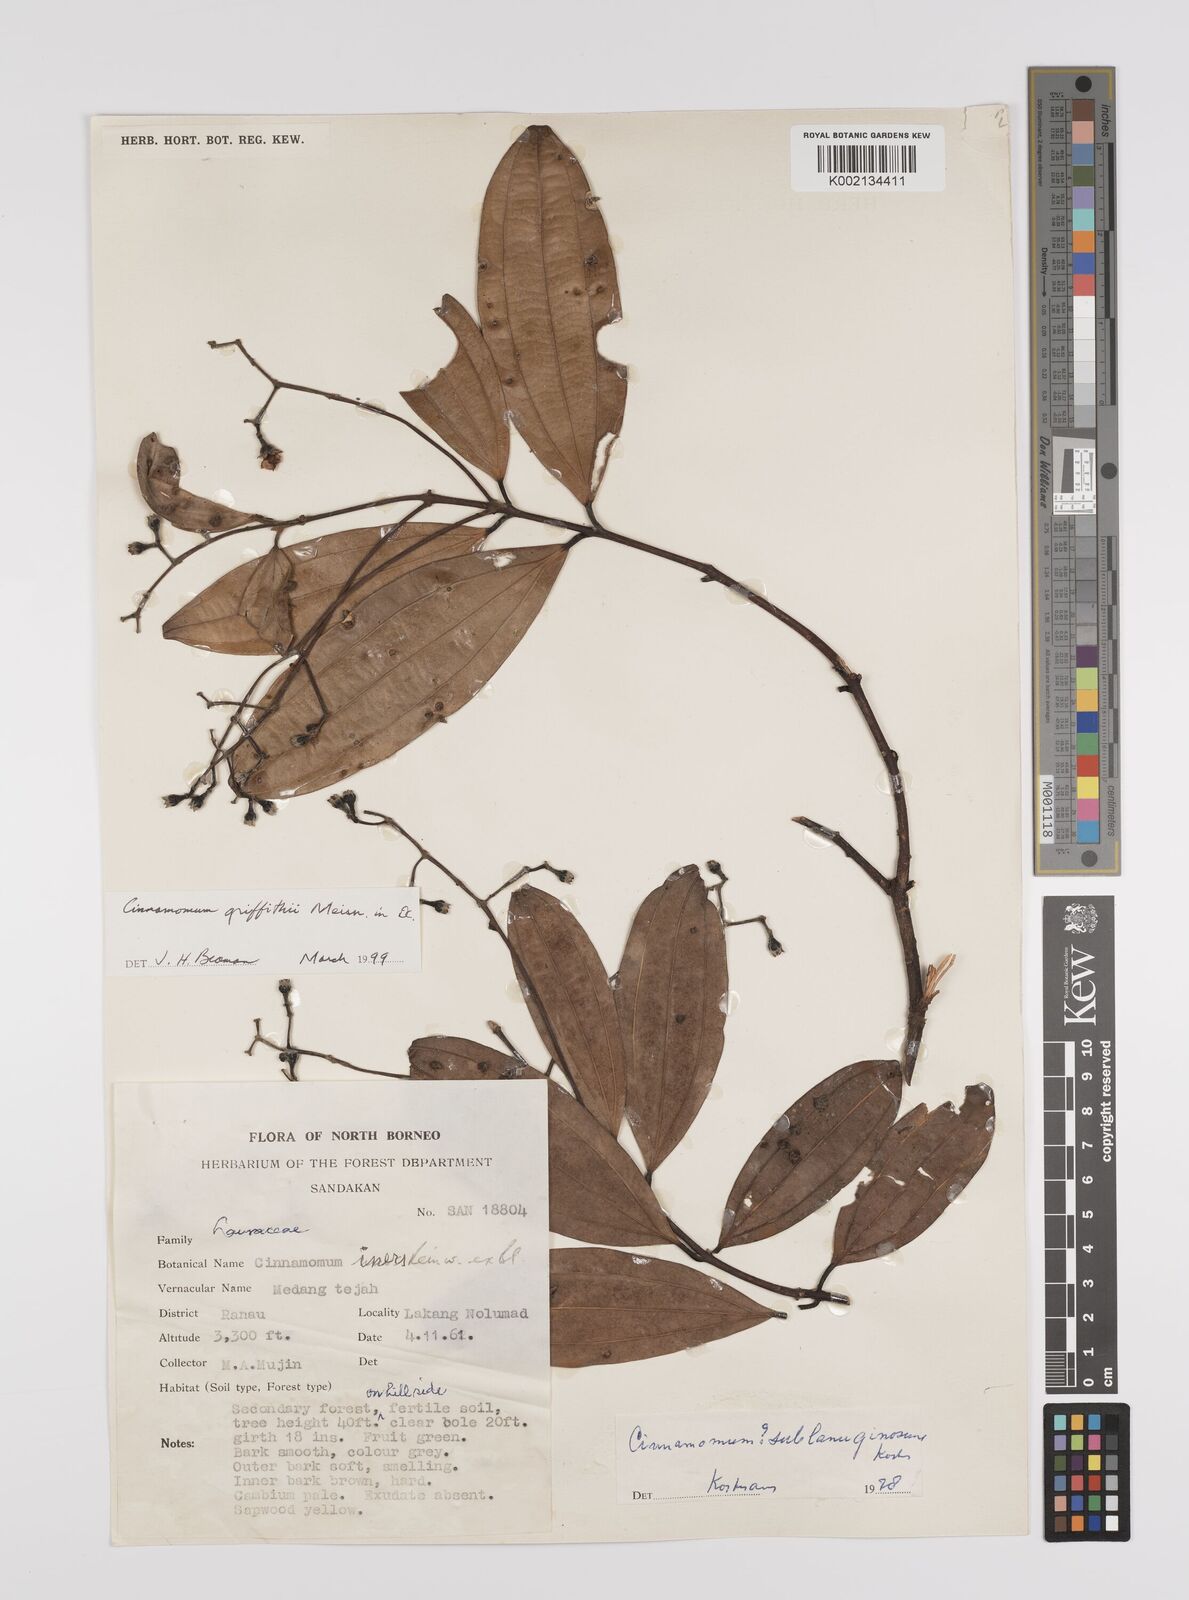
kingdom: Plantae
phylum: Tracheophyta
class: Magnoliopsida
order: Laurales
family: Lauraceae
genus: Cinnamomum
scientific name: Cinnamomum iners
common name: Wild cinnamon
